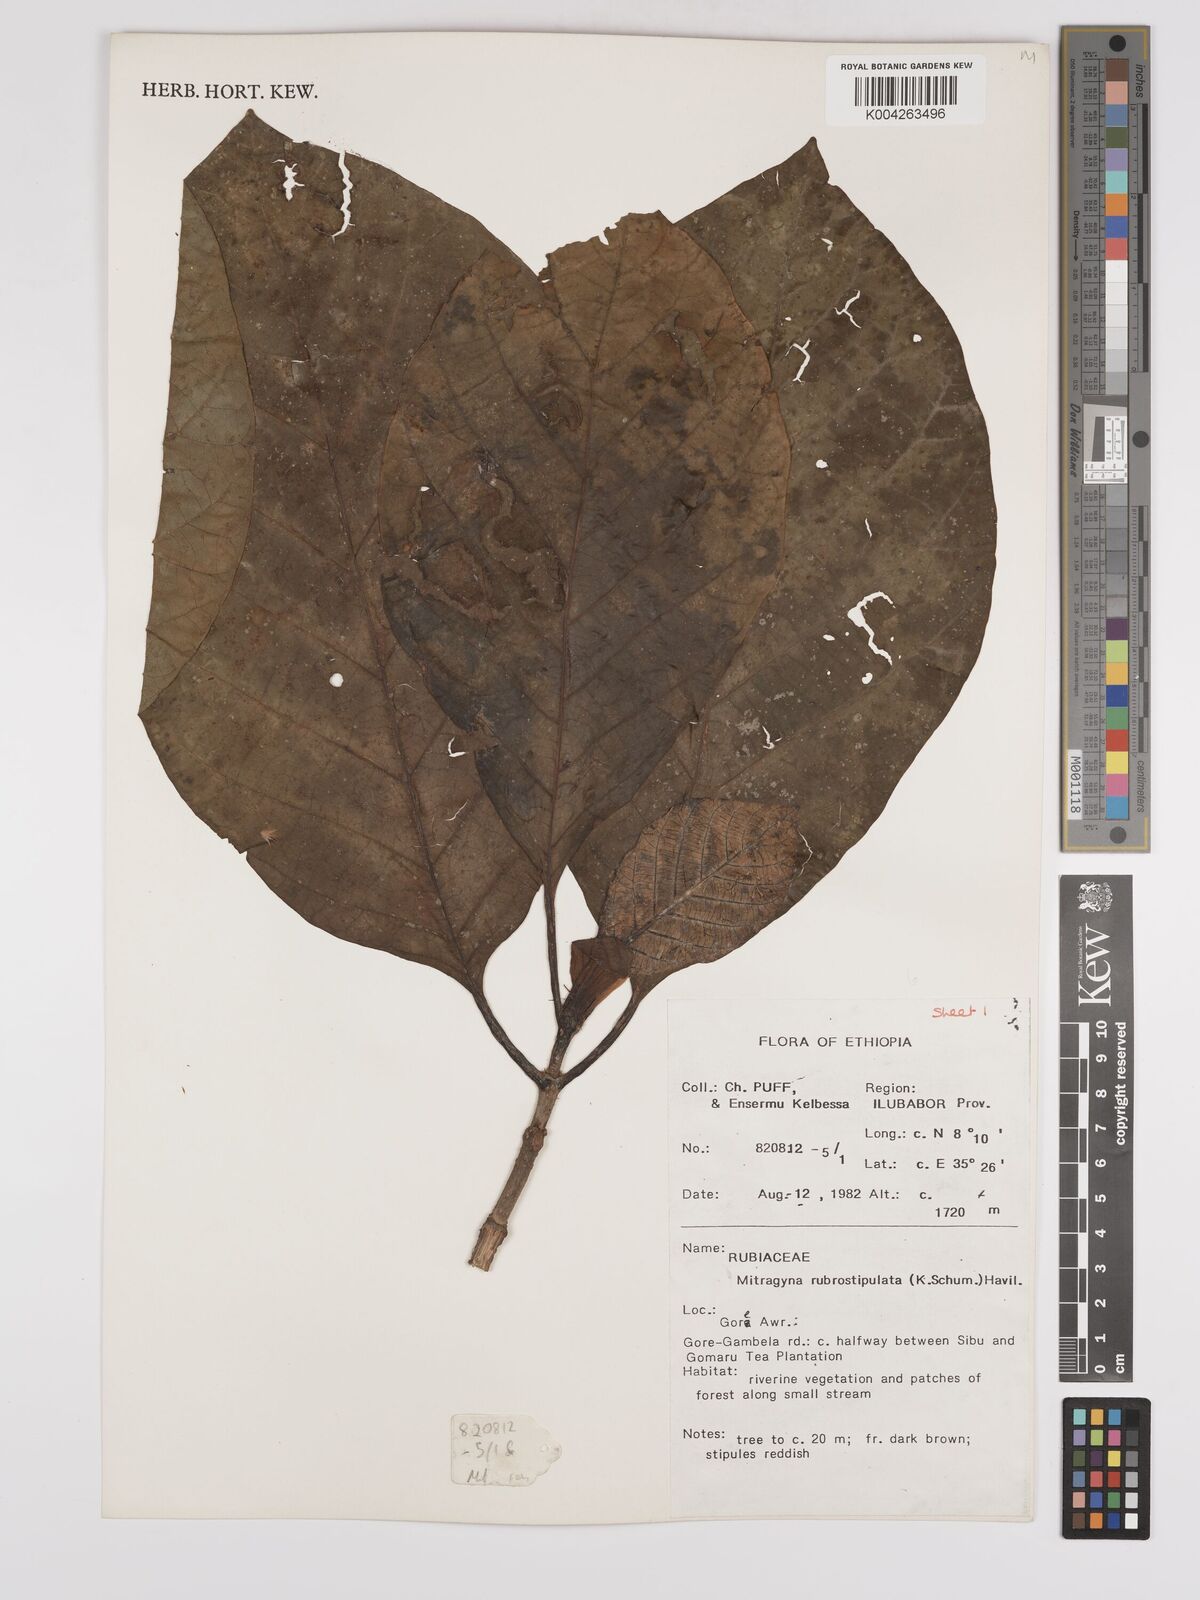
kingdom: Plantae
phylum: Tracheophyta
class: Magnoliopsida
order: Gentianales
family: Rubiaceae
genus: Mitragyna
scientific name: Mitragyna rubrostipulata
